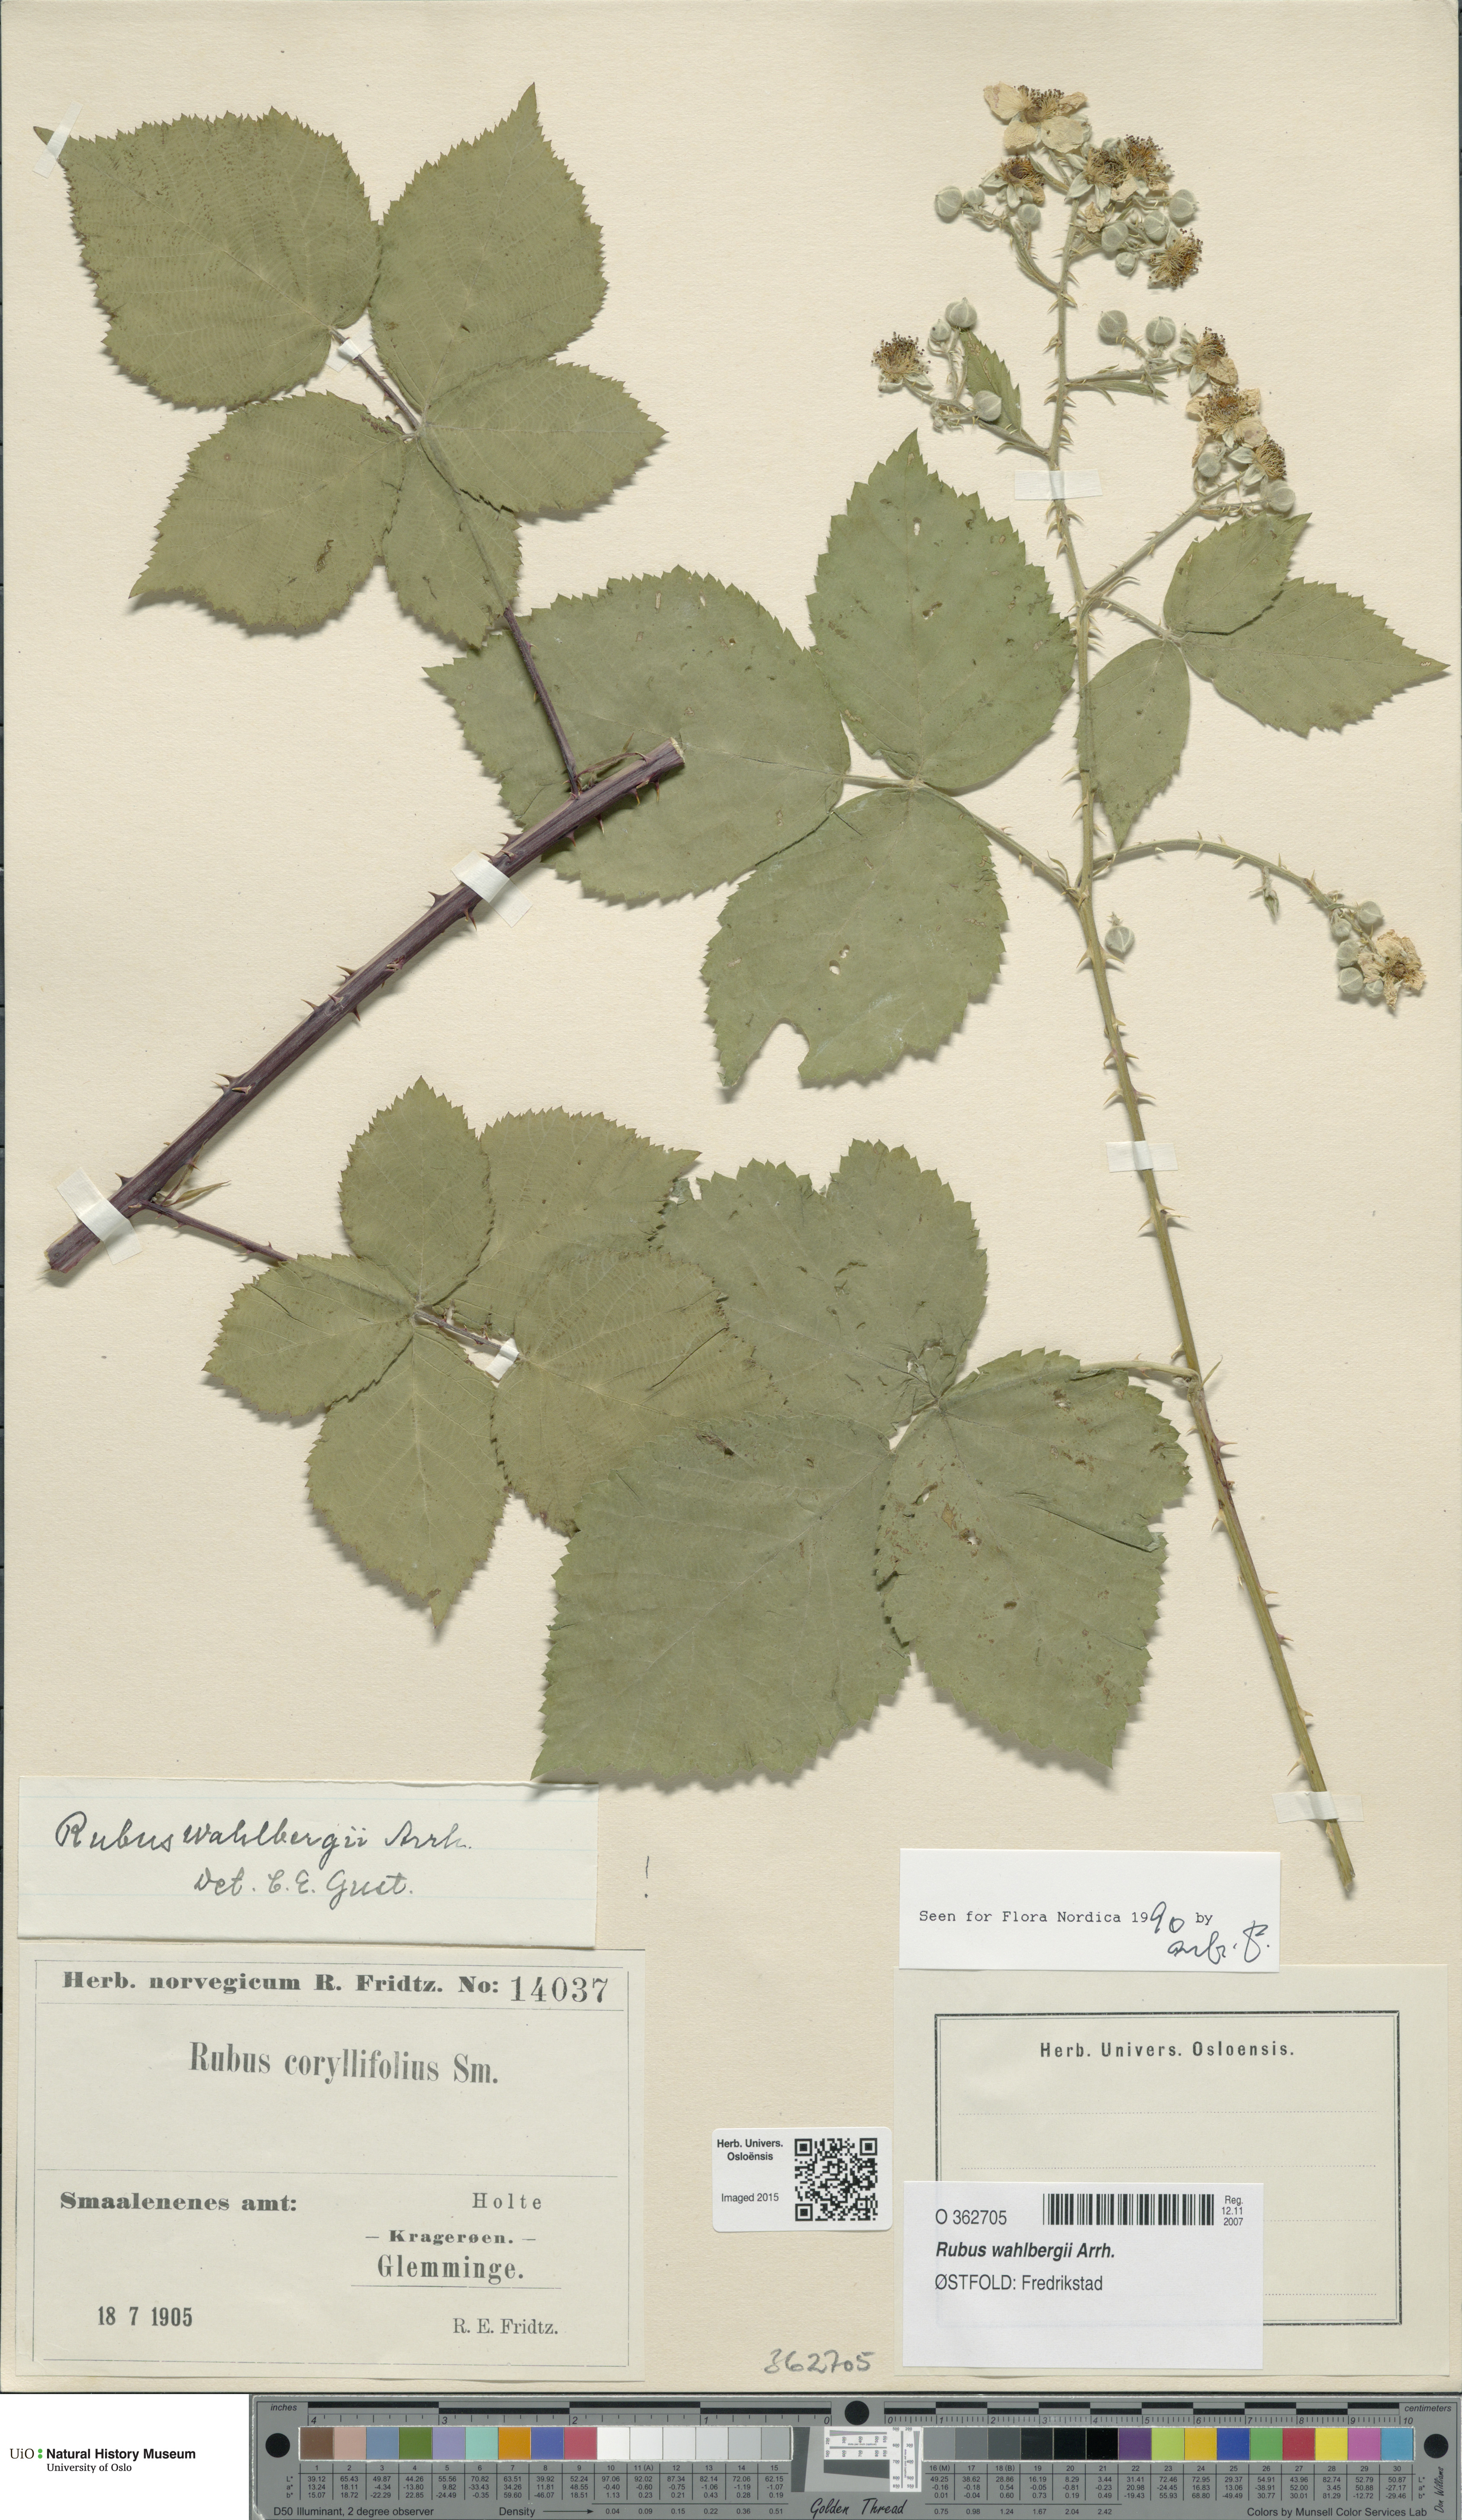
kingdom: Plantae
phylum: Tracheophyta
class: Magnoliopsida
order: Rosales
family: Rosaceae
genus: Rubus
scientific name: Rubus wahlbergii
